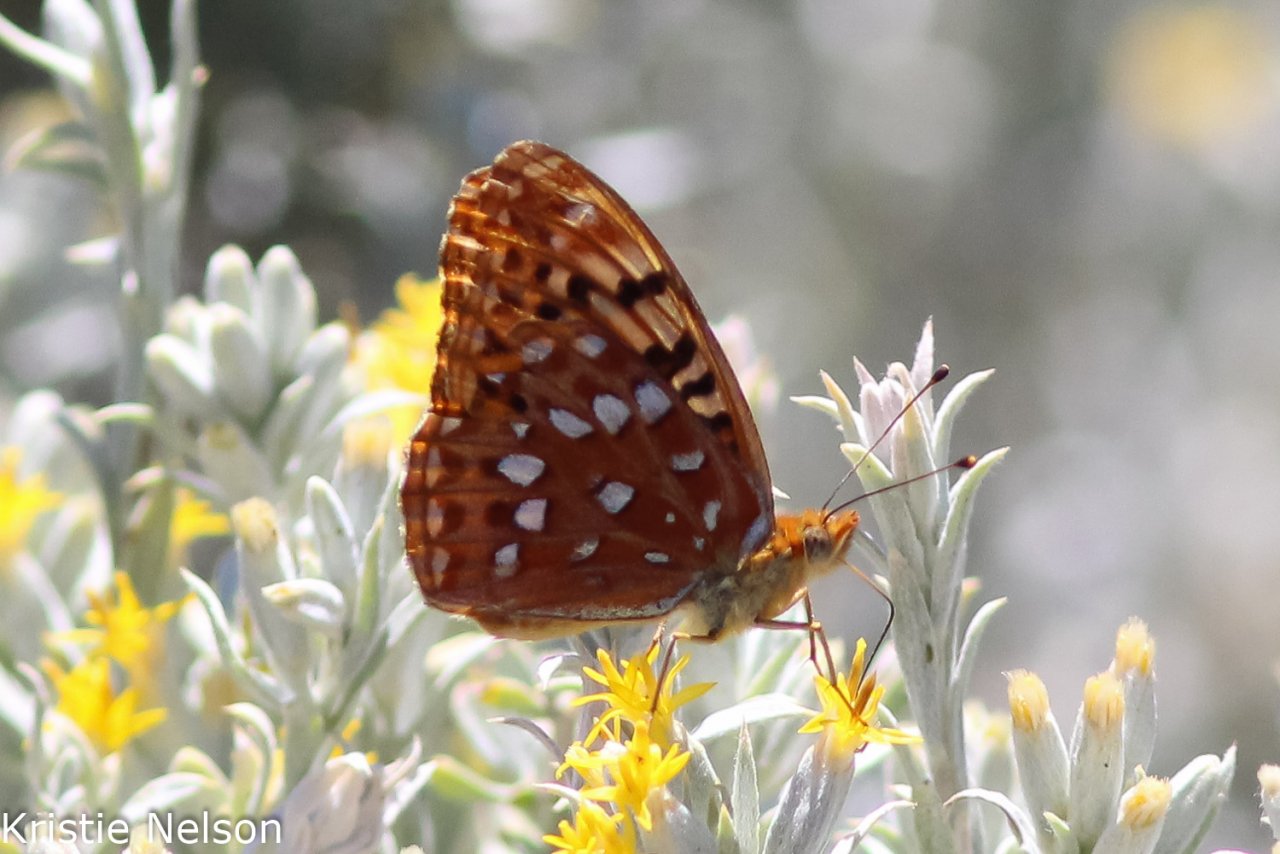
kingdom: Animalia
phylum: Arthropoda
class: Insecta
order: Lepidoptera
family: Nymphalidae
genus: Speyeria
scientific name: Speyeria
